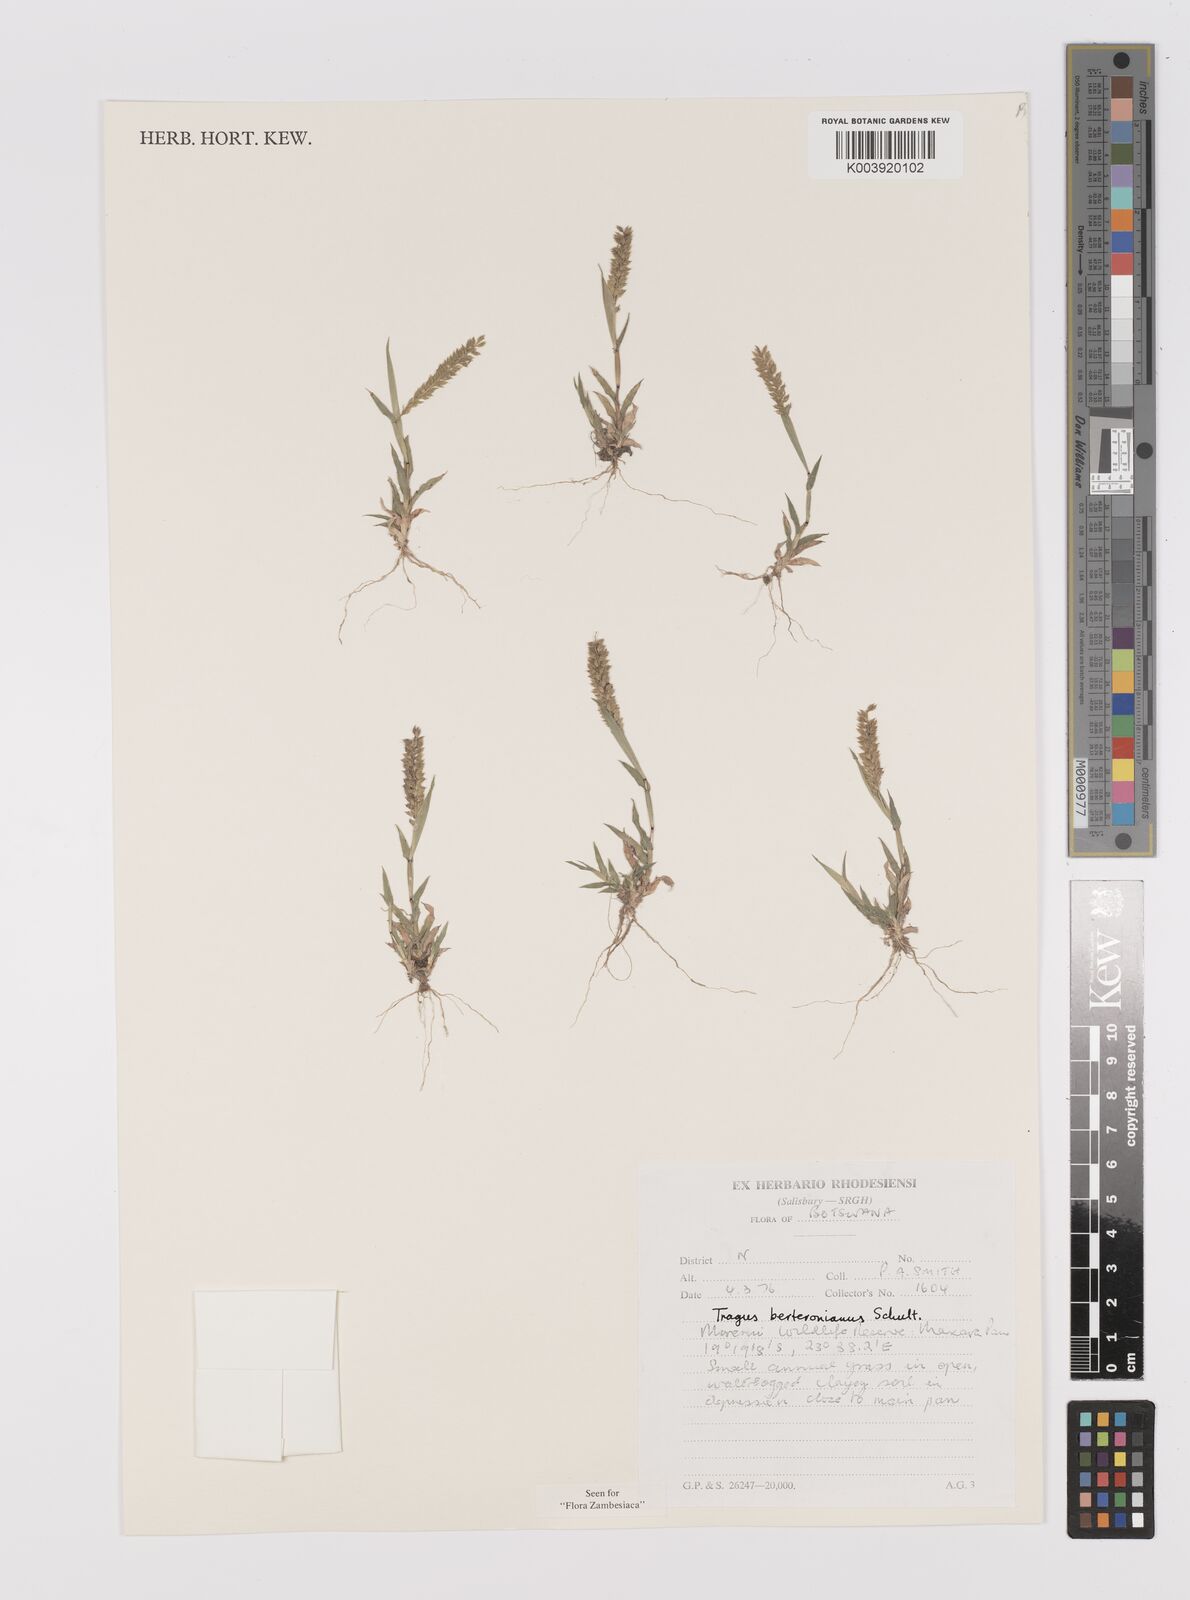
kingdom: Plantae
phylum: Tracheophyta
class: Liliopsida
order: Poales
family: Poaceae
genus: Tragus
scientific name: Tragus berteronianus
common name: African bur-grass
